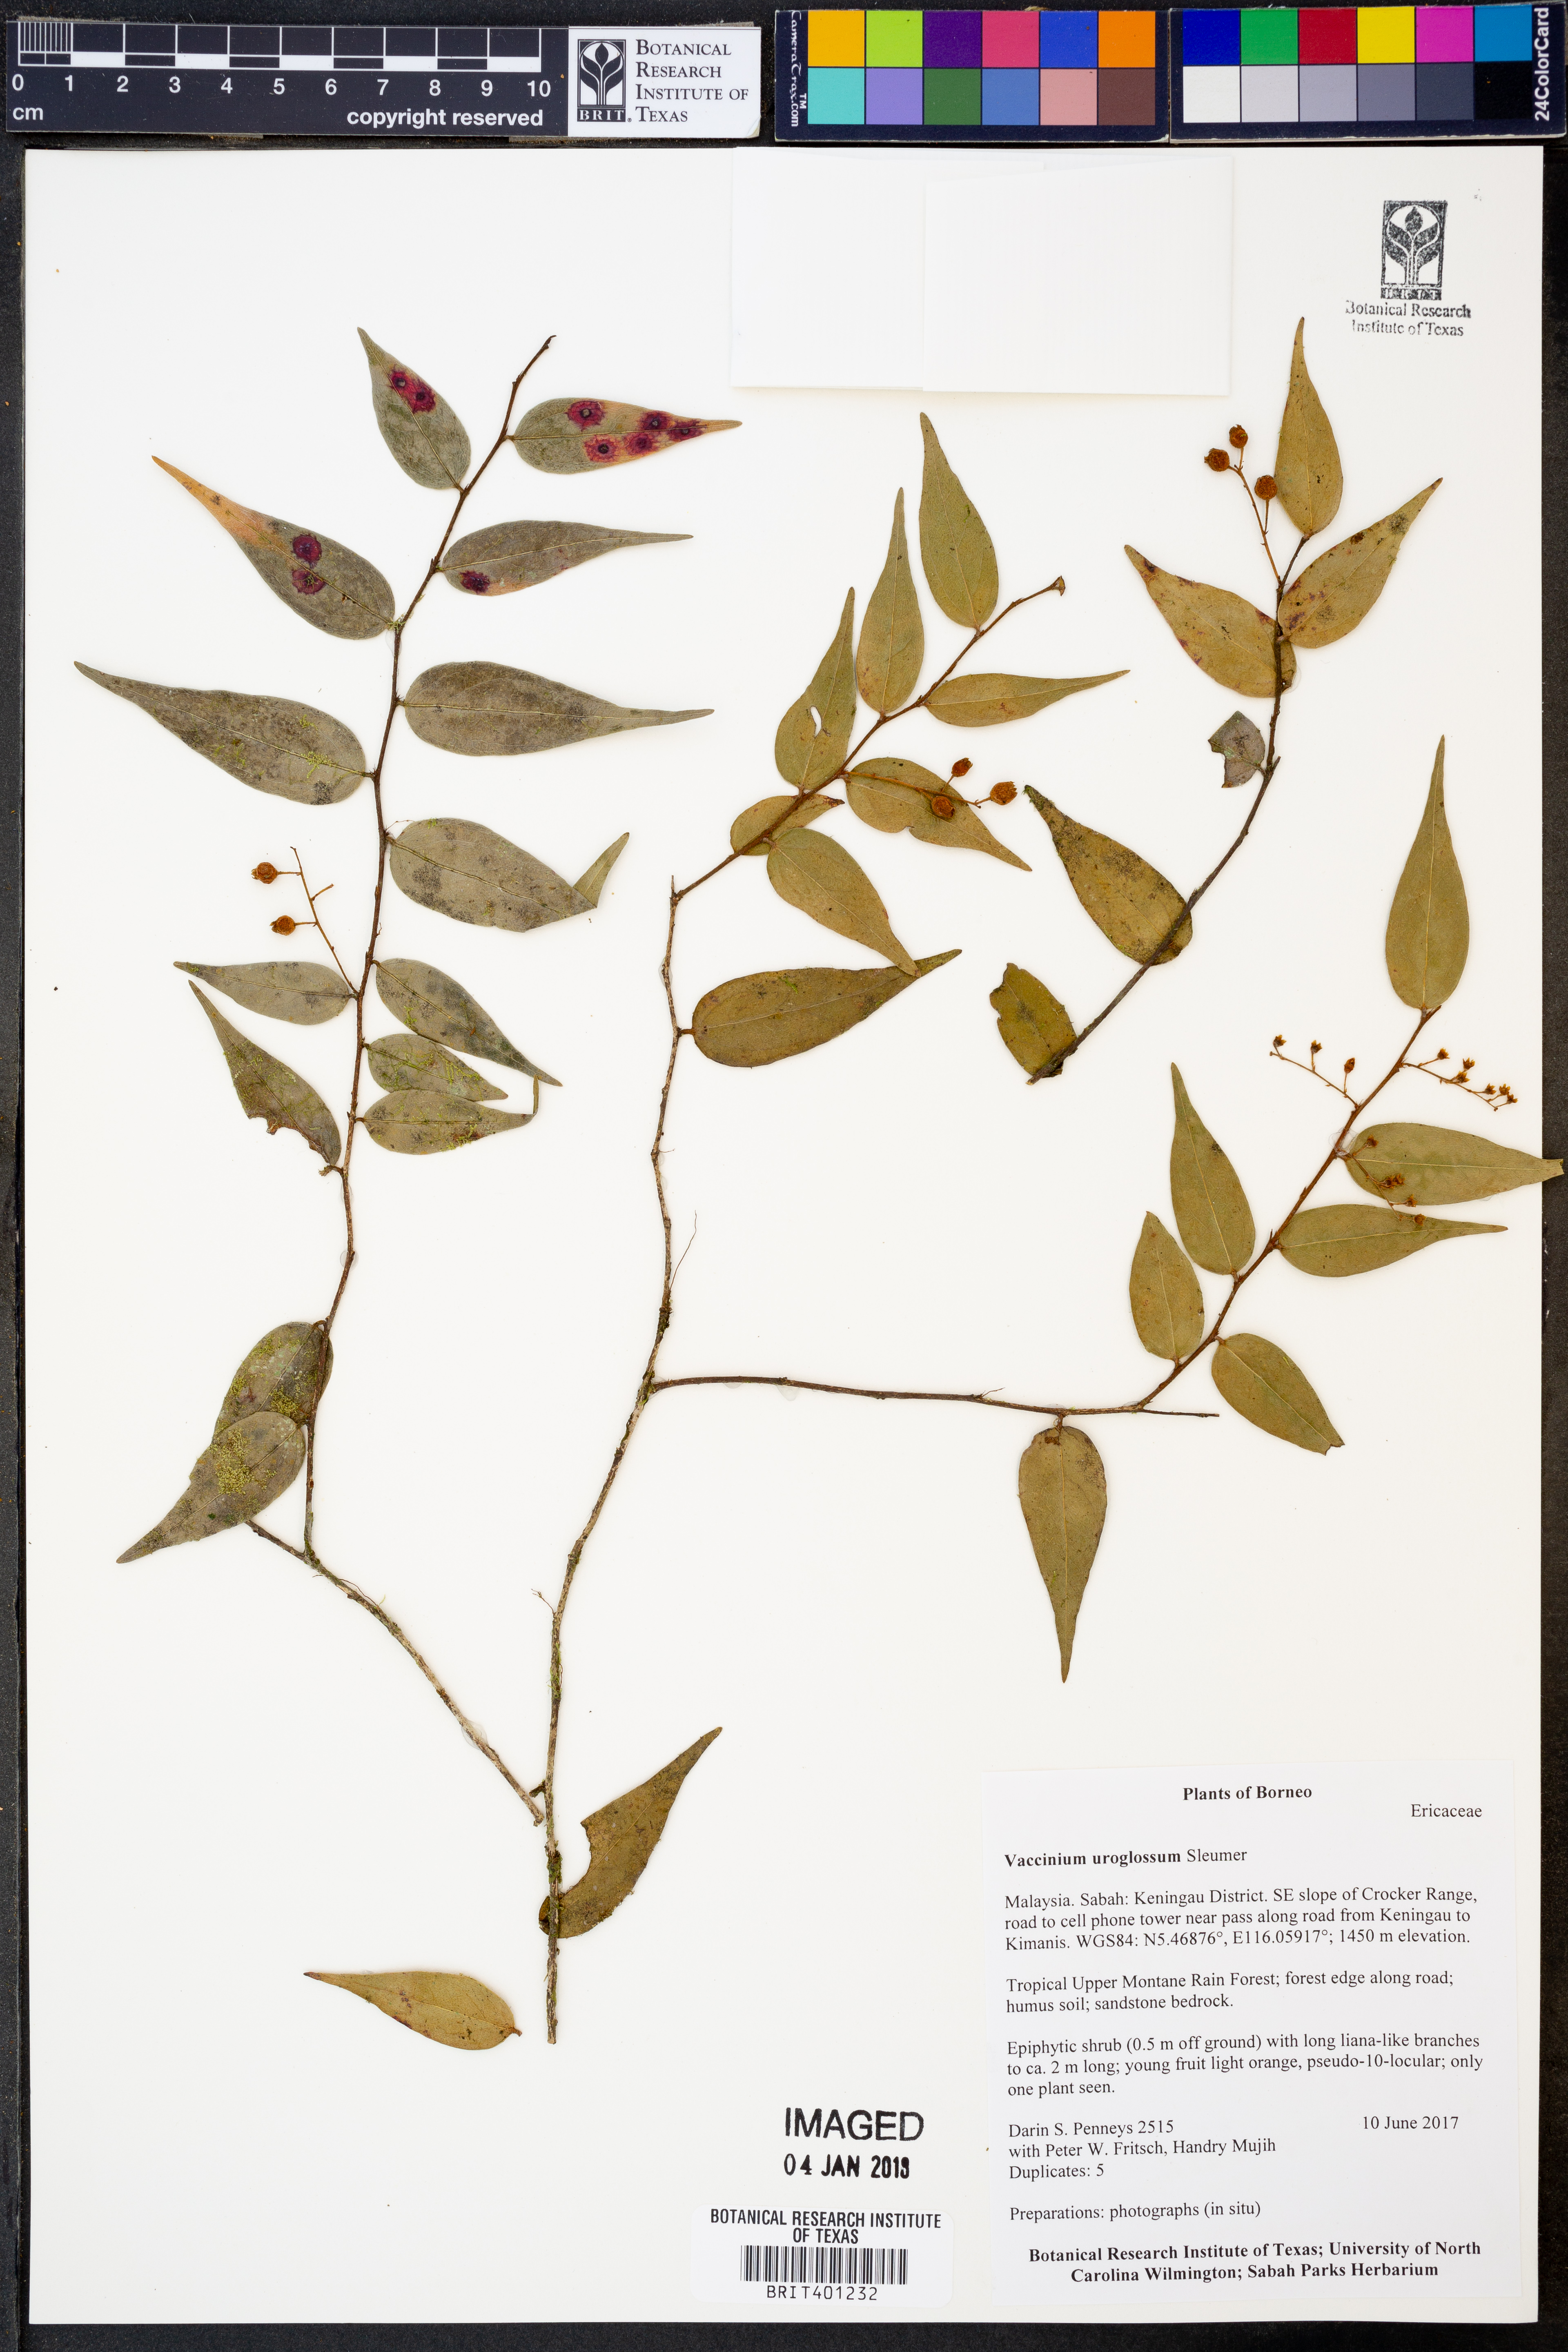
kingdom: Plantae
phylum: Tracheophyta
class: Magnoliopsida
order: Ericales
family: Ericaceae
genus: Rigiolepis
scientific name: Rigiolepis uroglossa
